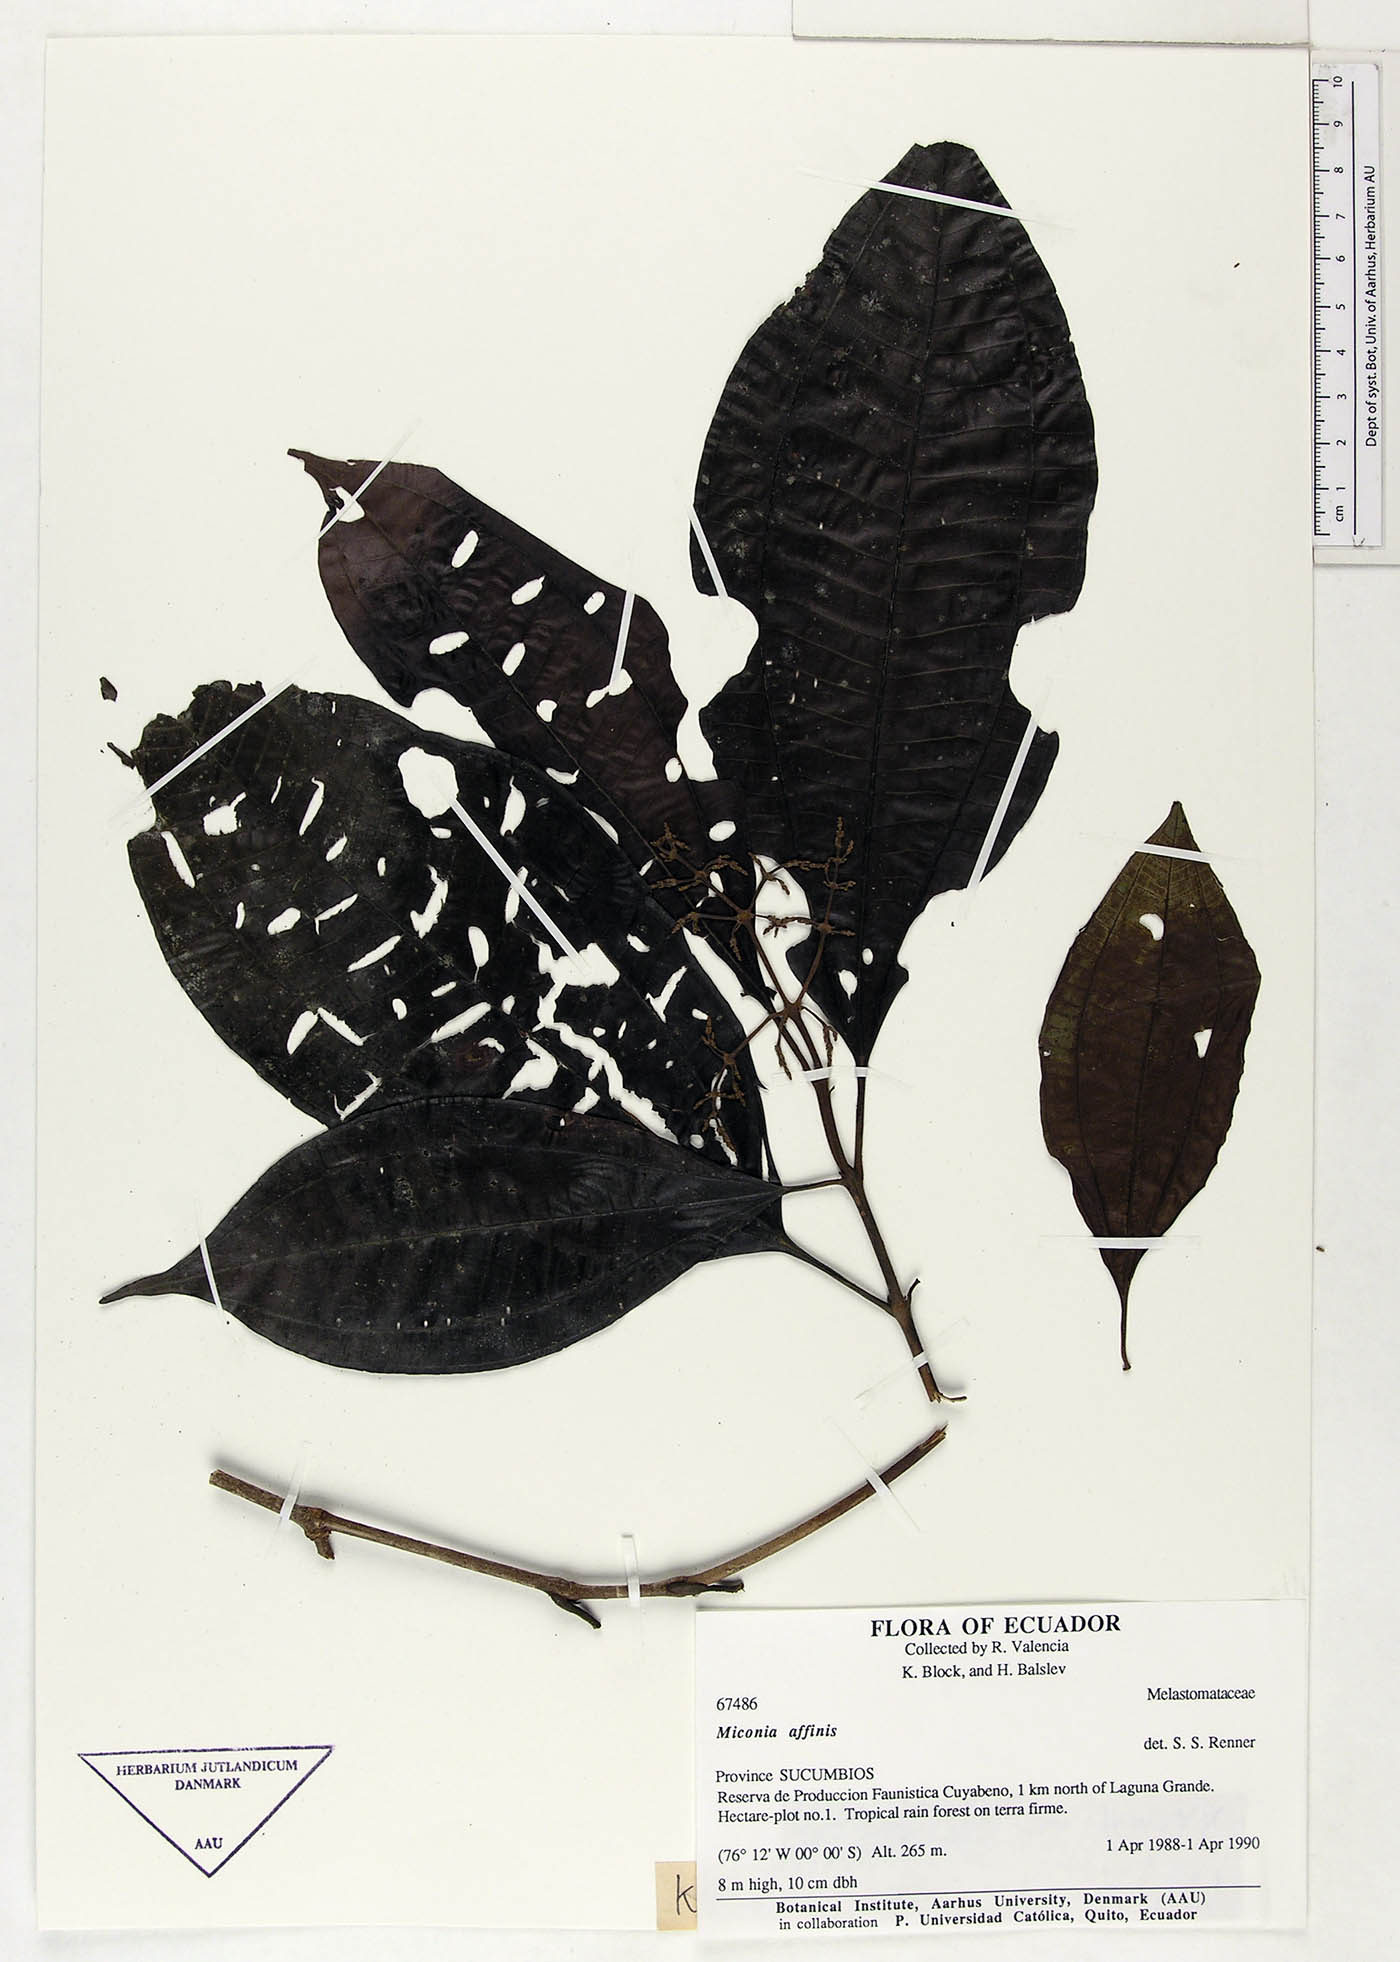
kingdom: Plantae
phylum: Tracheophyta
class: Magnoliopsida
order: Myrtales
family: Melastomataceae
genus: Miconia
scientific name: Miconia affinis
